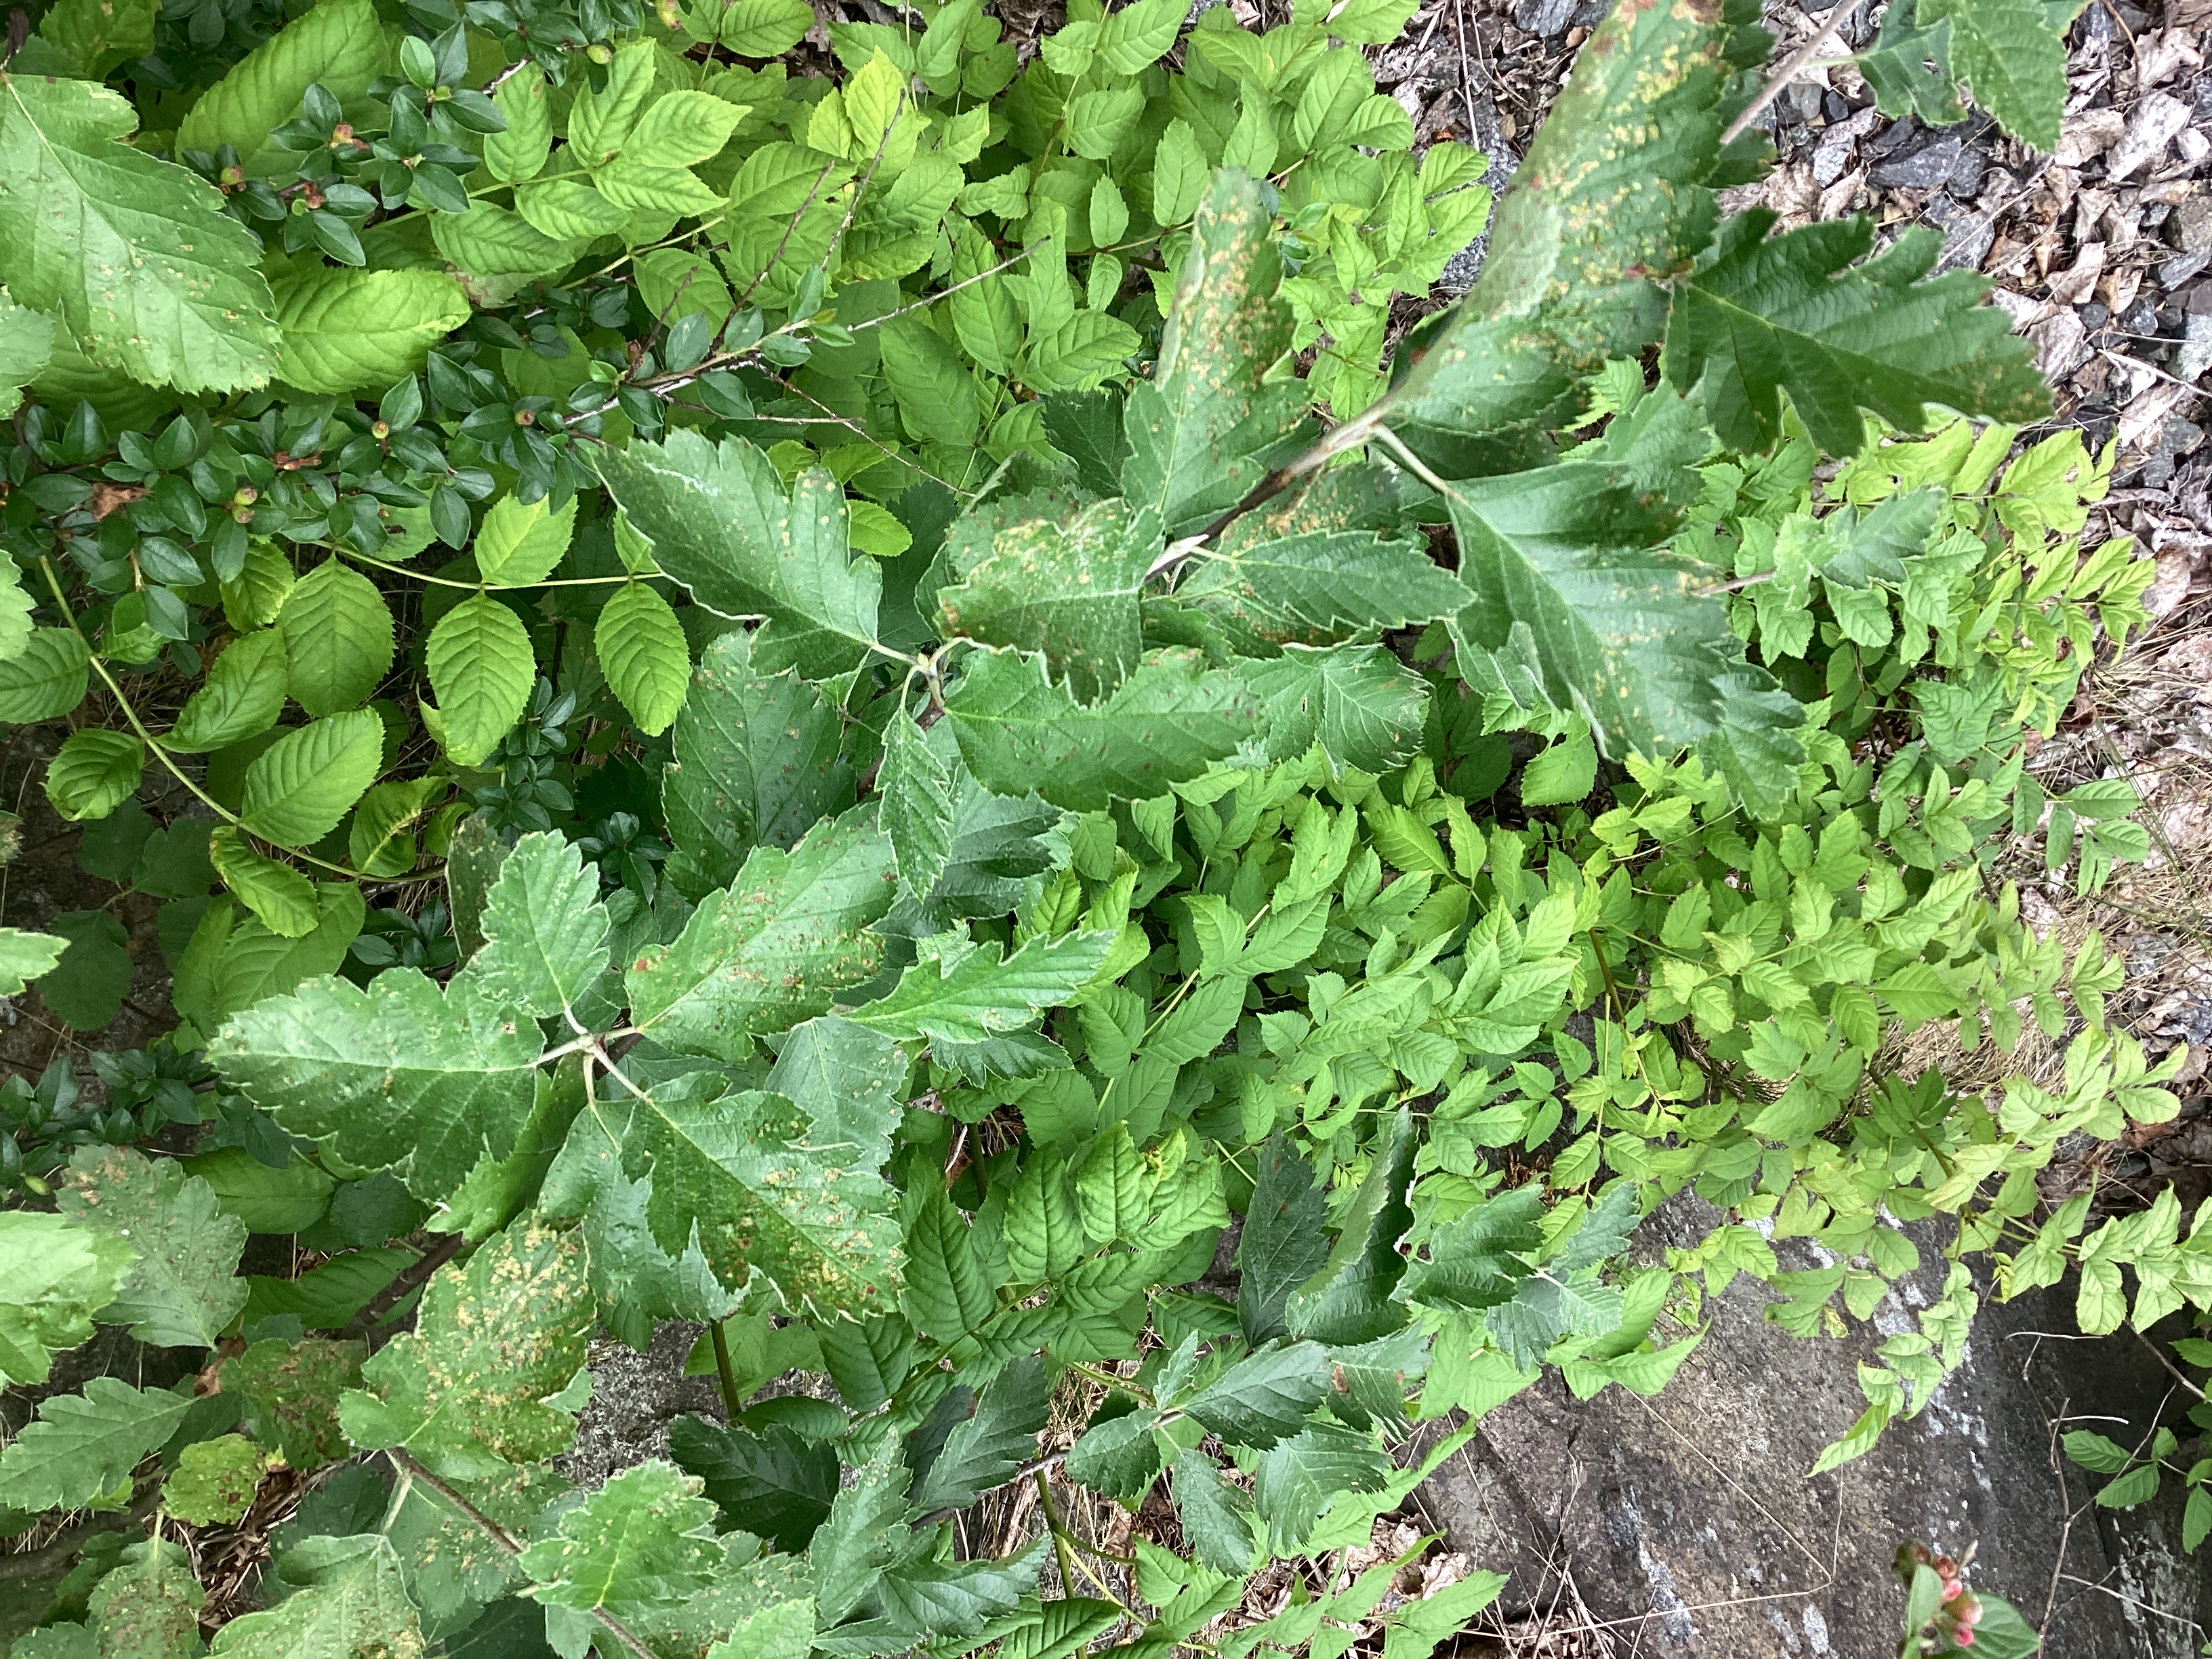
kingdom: Plantae
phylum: Tracheophyta
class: Magnoliopsida
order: Rosales
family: Rosaceae
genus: Scandosorbus
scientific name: Scandosorbus intermedia
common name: svensk asal
